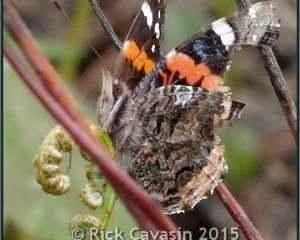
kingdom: Animalia
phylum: Arthropoda
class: Insecta
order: Lepidoptera
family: Nymphalidae
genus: Vanessa
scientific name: Vanessa atalanta
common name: Red Admiral
